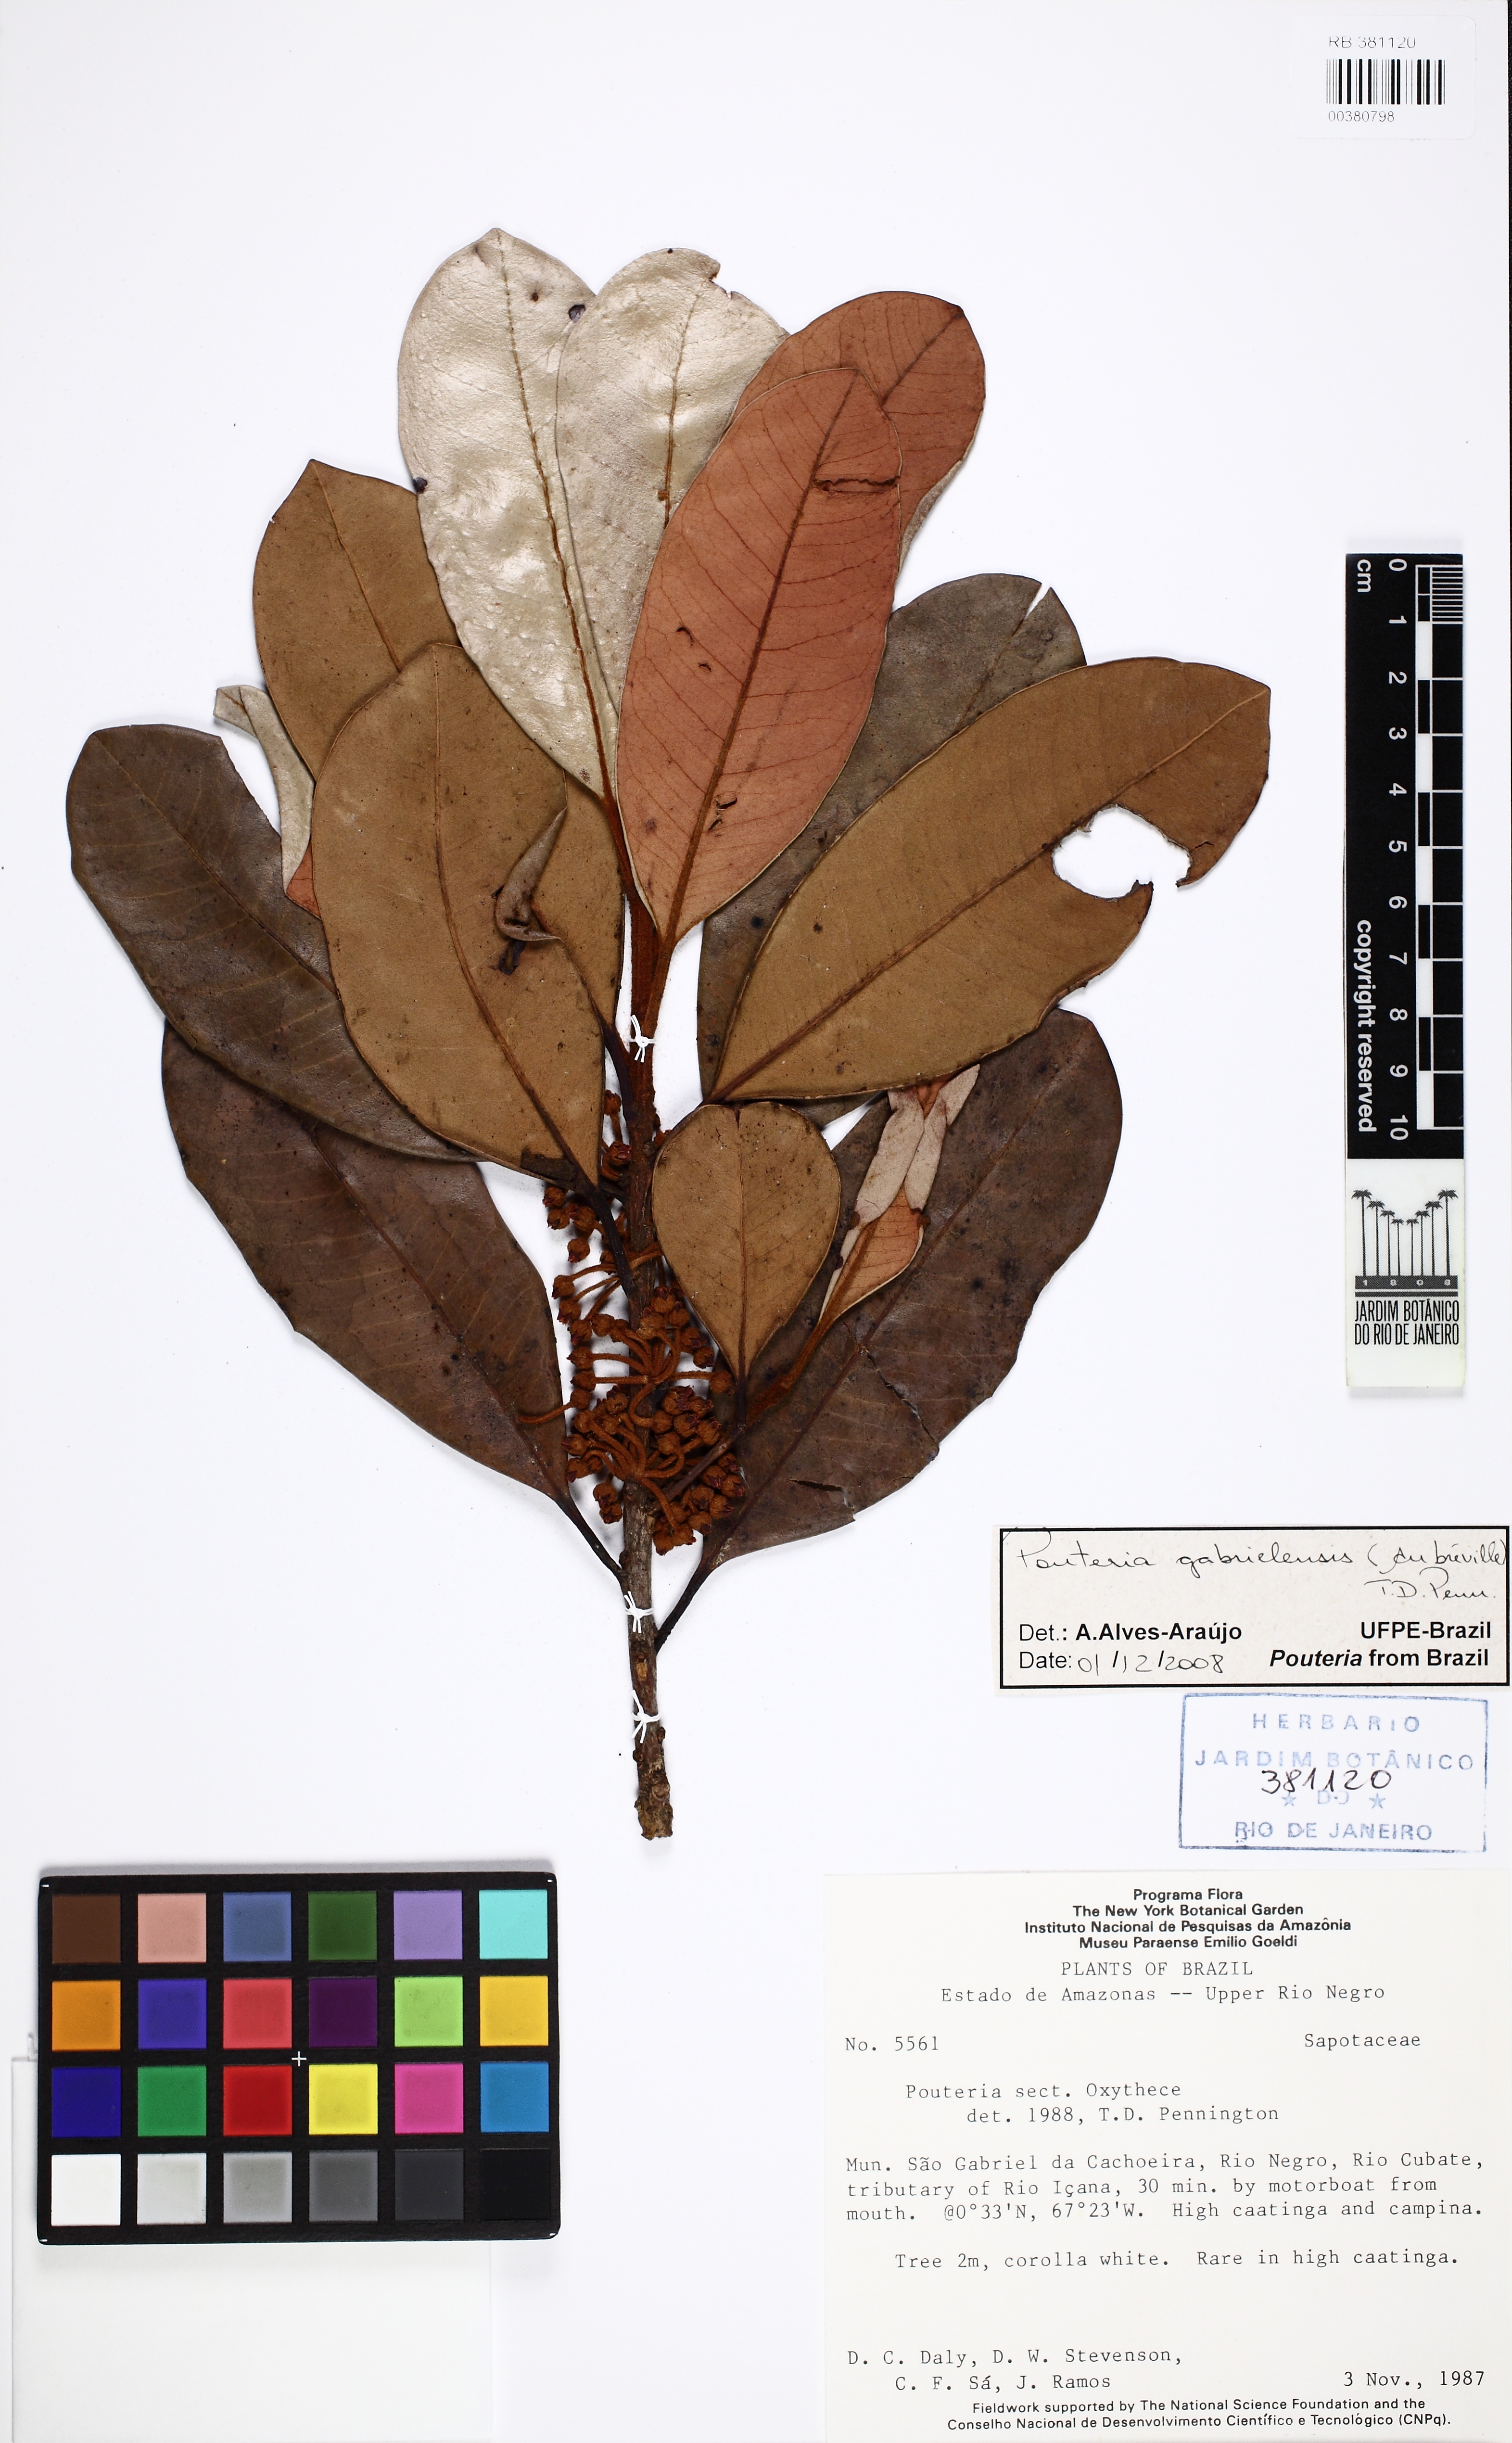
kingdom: Plantae
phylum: Tracheophyta
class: Magnoliopsida
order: Ericales
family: Sapotaceae
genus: Pouteria
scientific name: Pouteria gabrielensis
